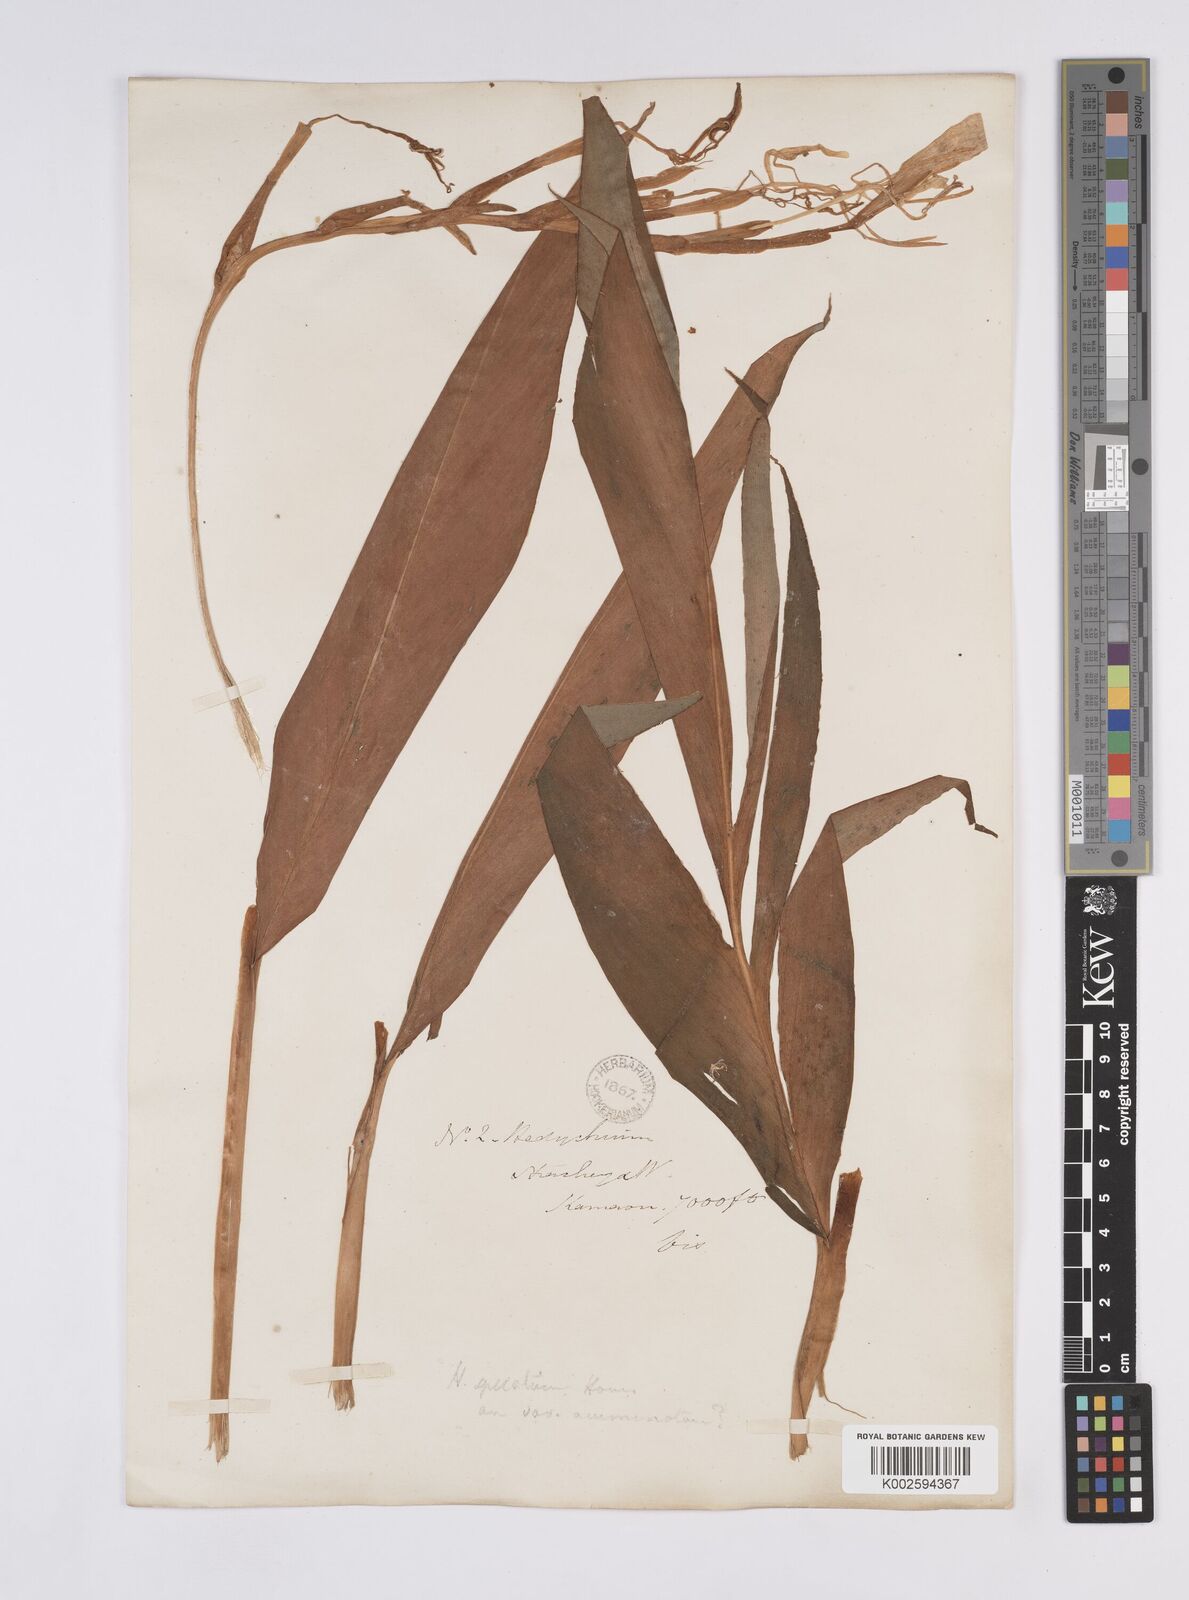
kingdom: Plantae
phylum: Tracheophyta
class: Liliopsida
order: Zingiberales
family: Zingiberaceae
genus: Hedychium
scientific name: Hedychium spicatum
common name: Spiked ginger-lily
